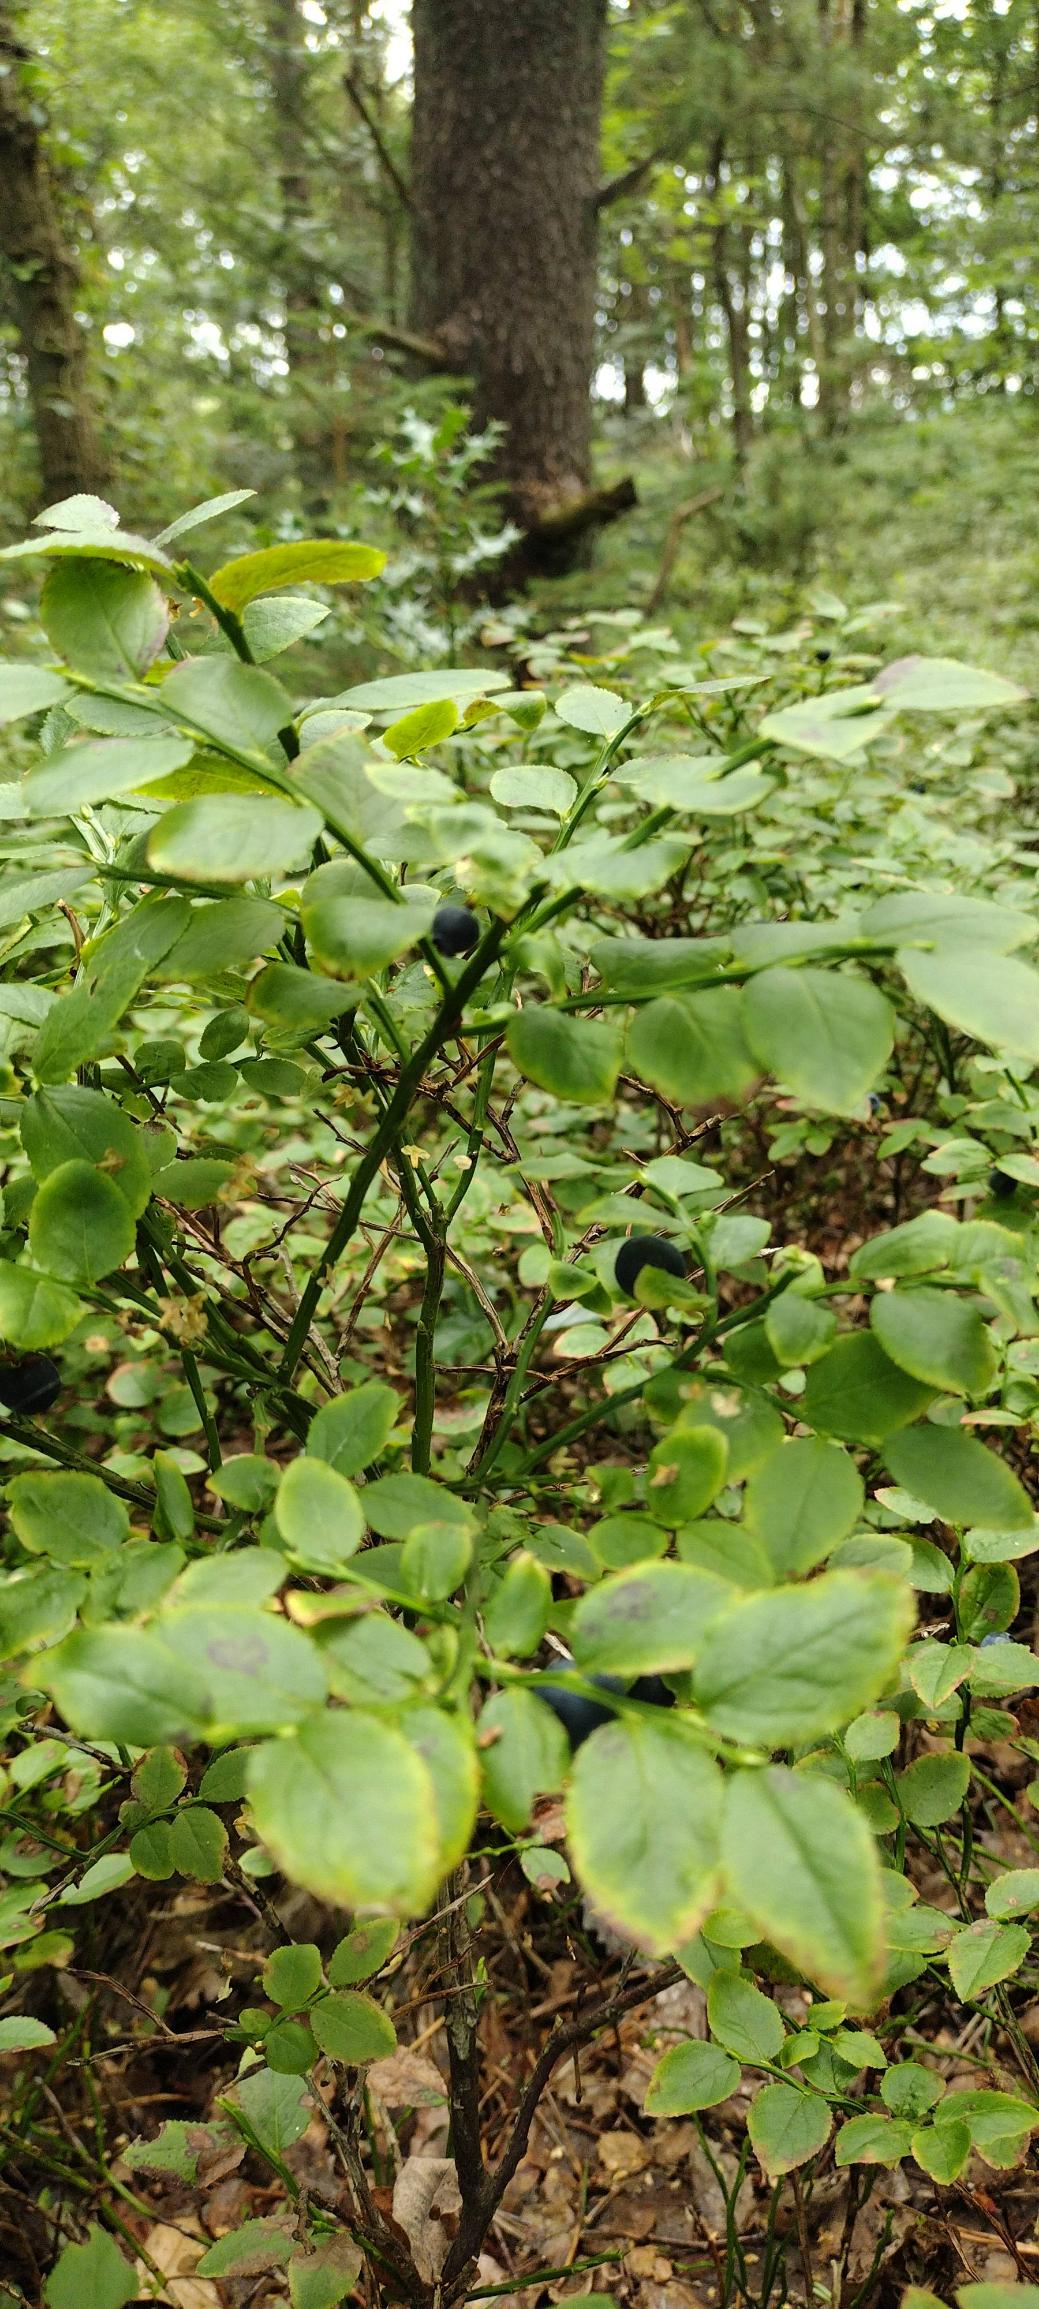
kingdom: Plantae
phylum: Tracheophyta
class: Magnoliopsida
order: Ericales
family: Ericaceae
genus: Vaccinium
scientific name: Vaccinium myrtillus
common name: Blåbær
